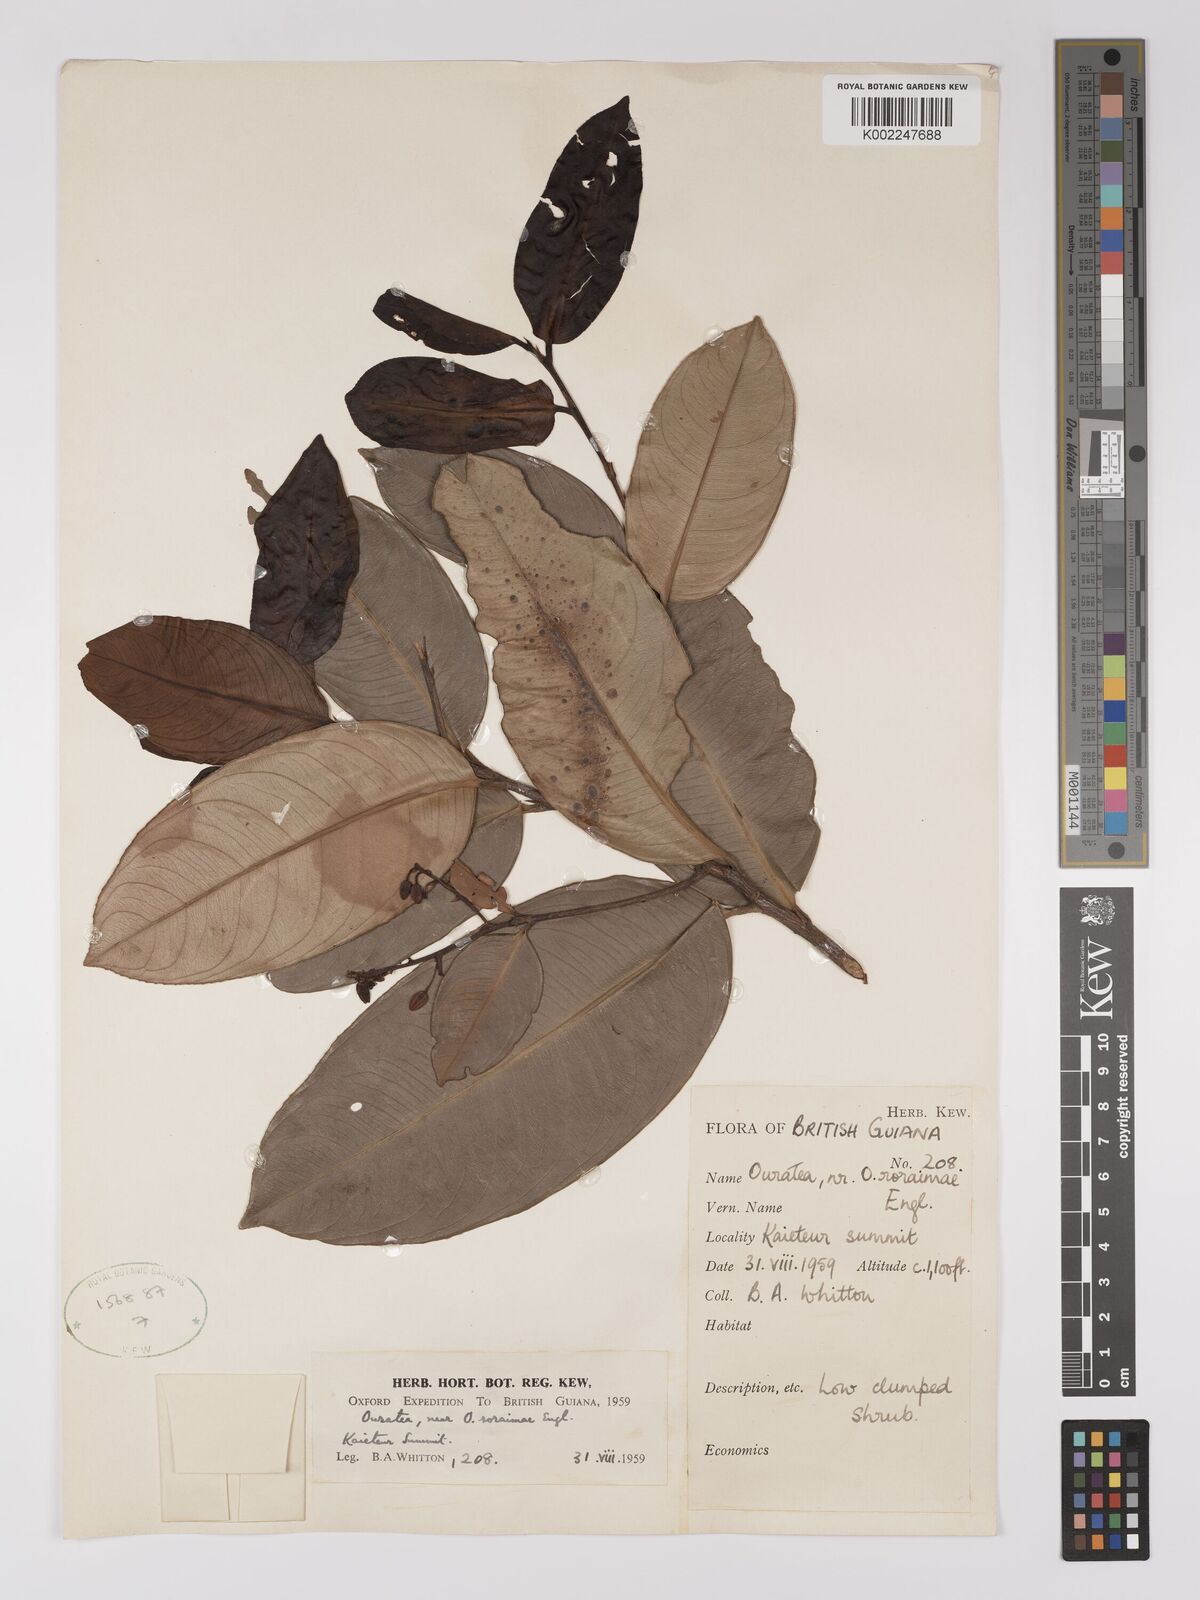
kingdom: Plantae
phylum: Tracheophyta
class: Magnoliopsida
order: Malpighiales
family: Ochnaceae
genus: Ouratea
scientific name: Ouratea roraimae
